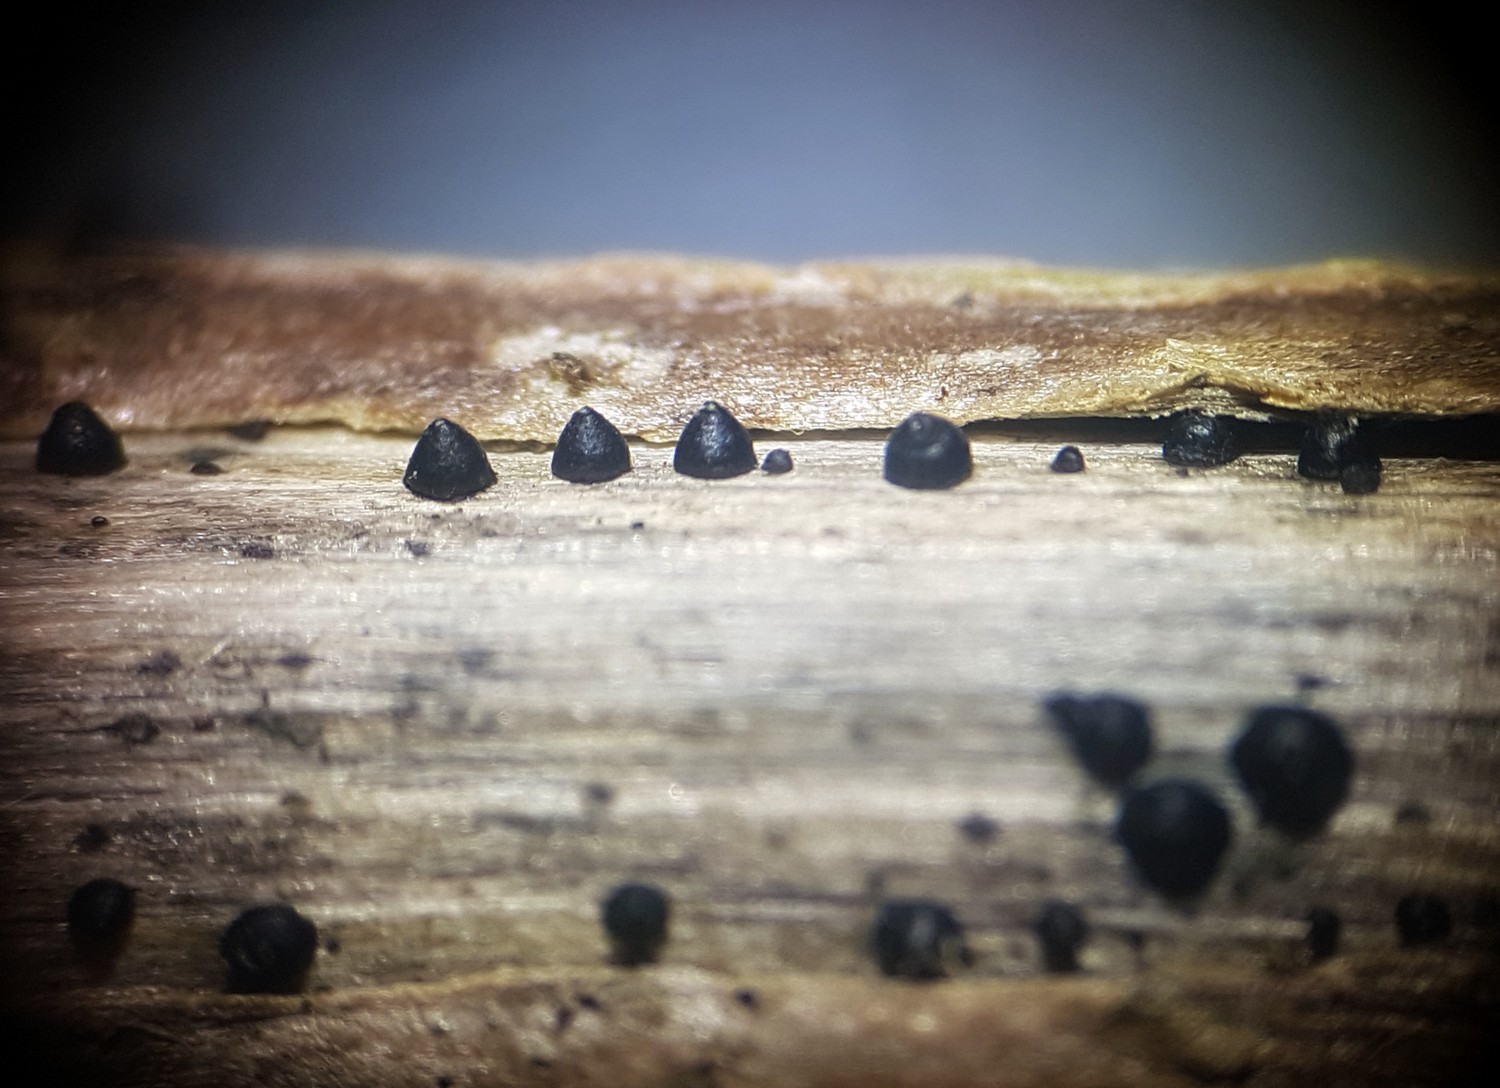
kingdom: Fungi
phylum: Ascomycota
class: Dothideomycetes
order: Pleosporales
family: Leptosphaeriaceae
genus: Leptosphaeria
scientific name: Leptosphaeria acuta
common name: spids kulkegle
